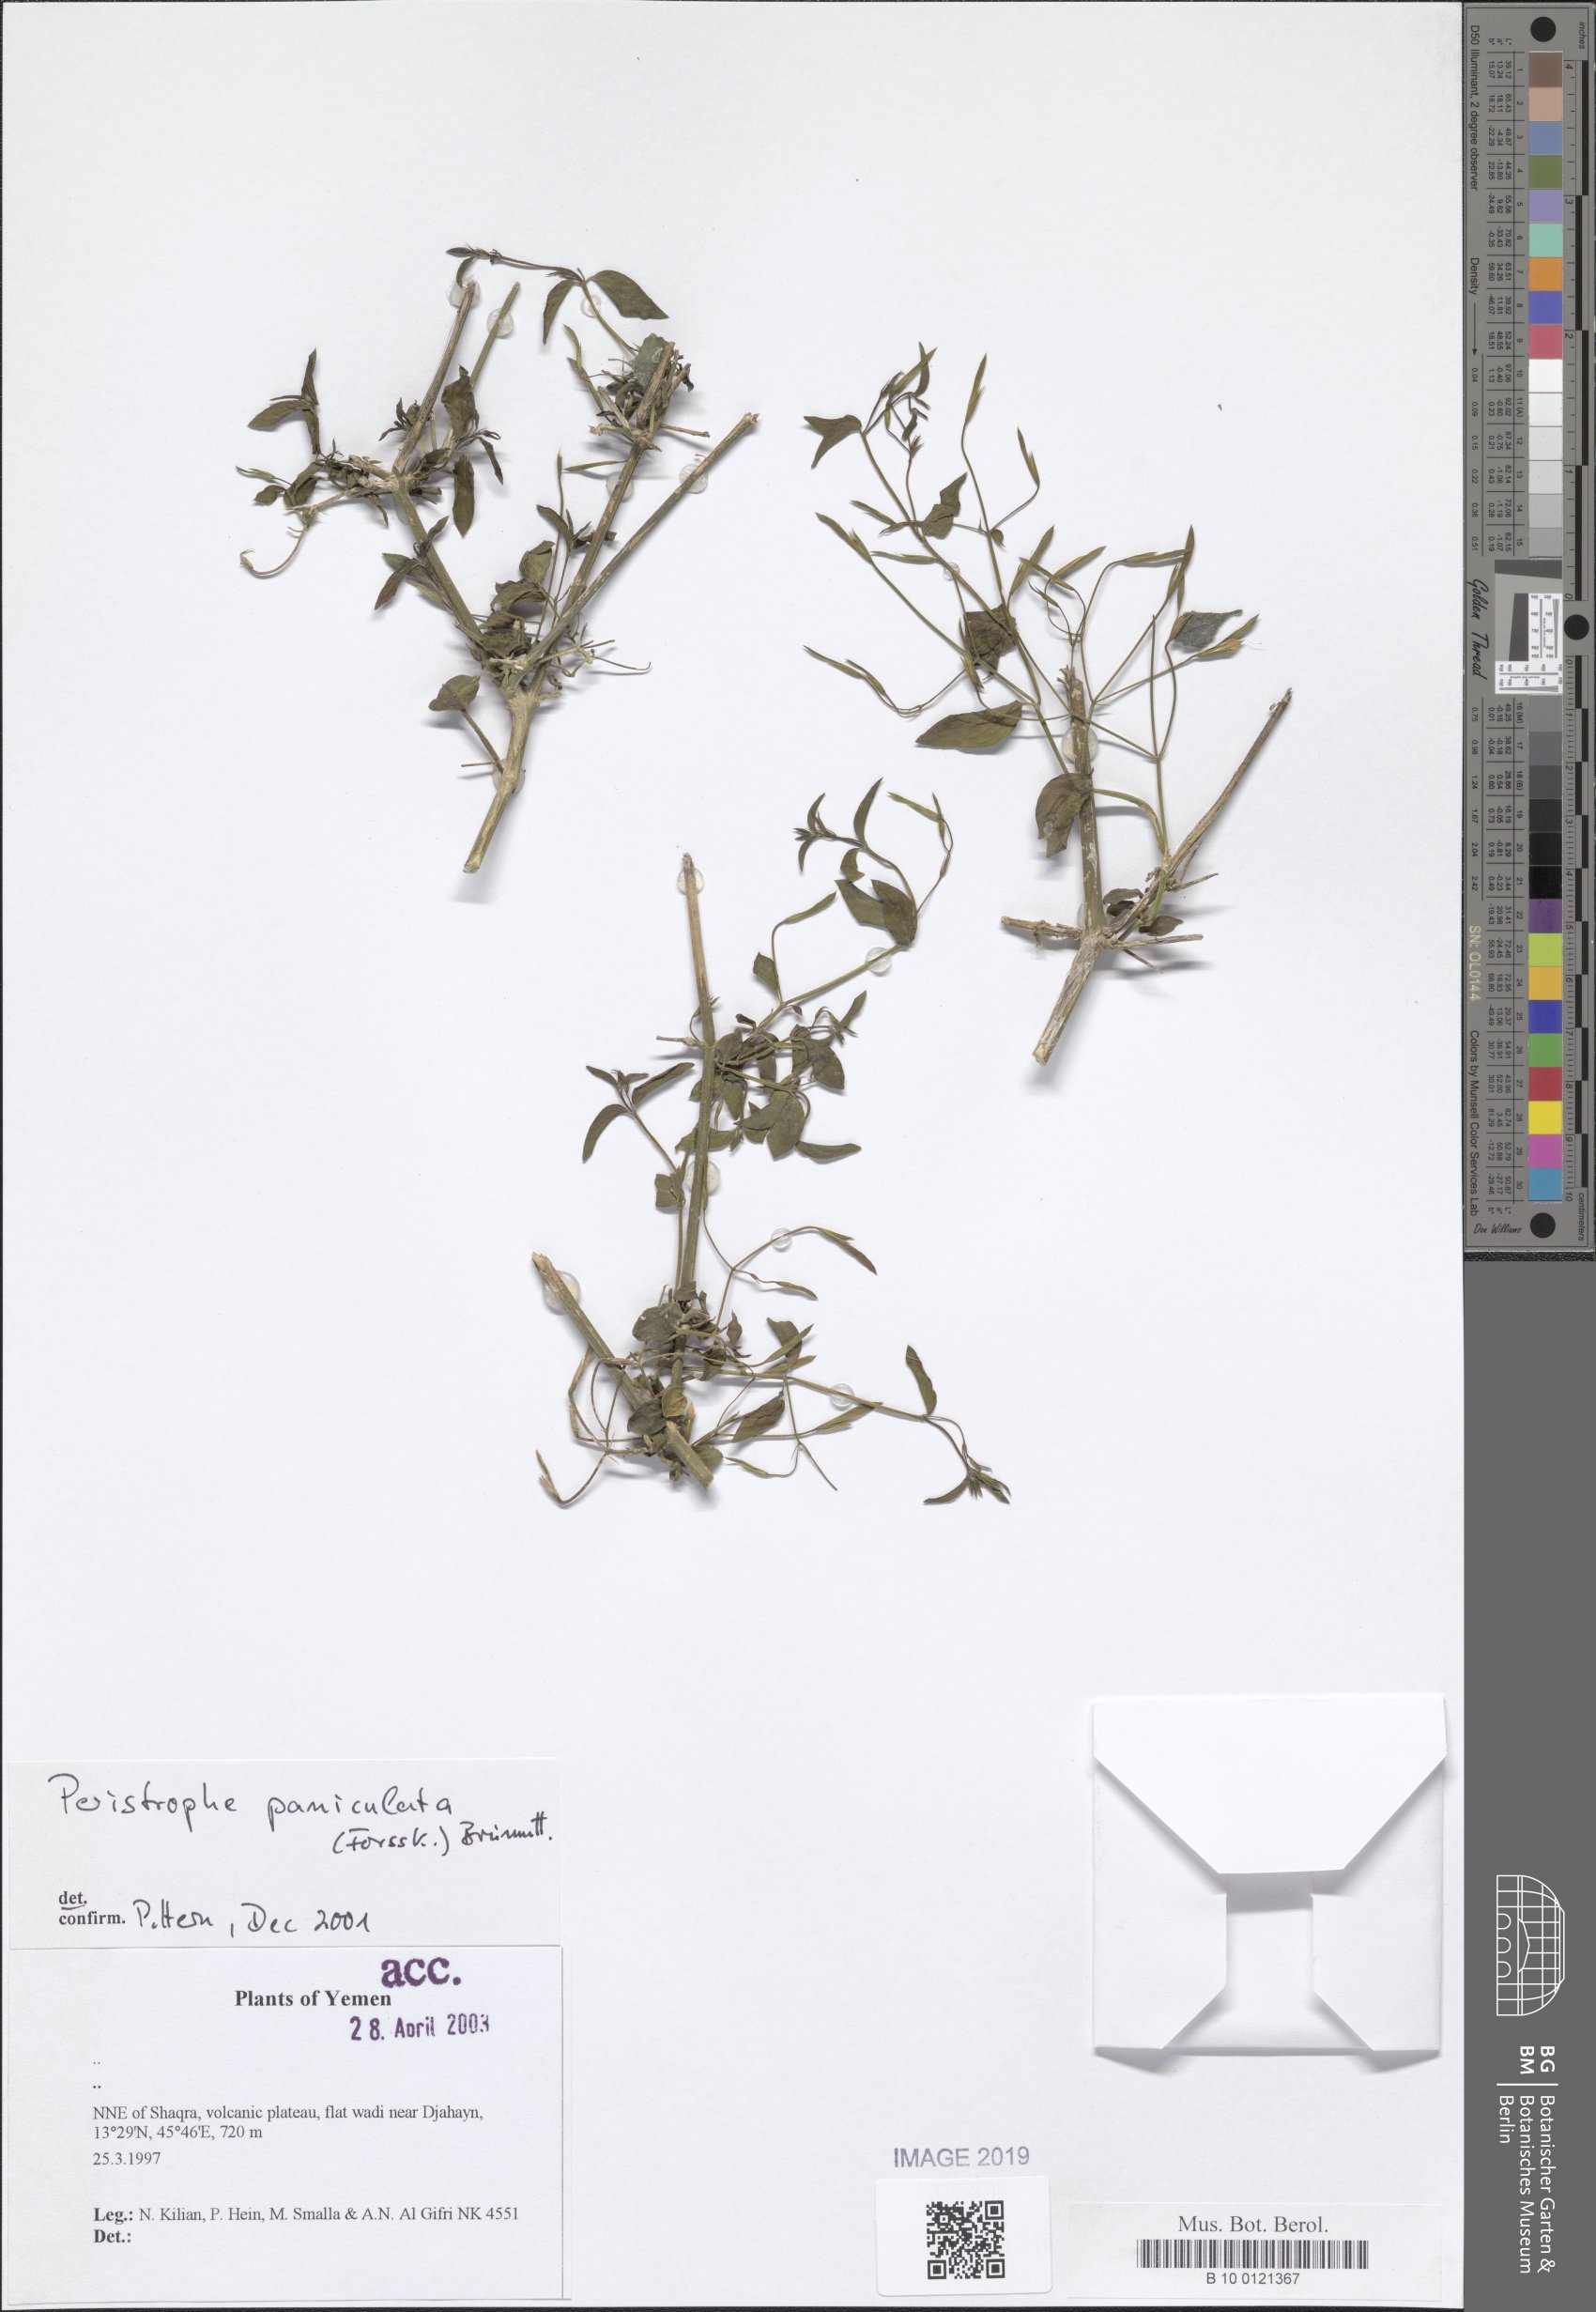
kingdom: Plantae
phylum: Tracheophyta
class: Magnoliopsida
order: Lamiales
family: Acanthaceae
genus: Dicliptera
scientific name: Dicliptera paniculata
